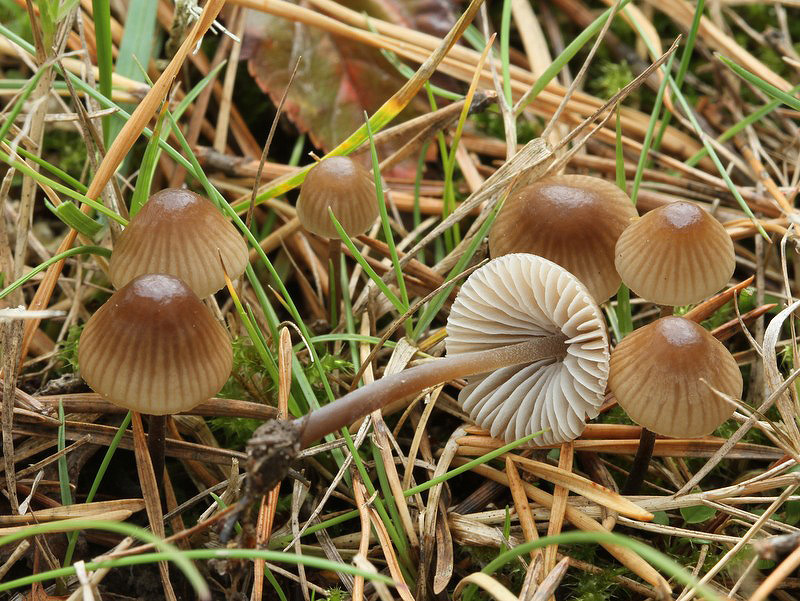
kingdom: Fungi
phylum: Basidiomycota
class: Agaricomycetes
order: Agaricales
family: Mycenaceae
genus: Mycena
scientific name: Mycena leptocephala
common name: klor-huesvamp
